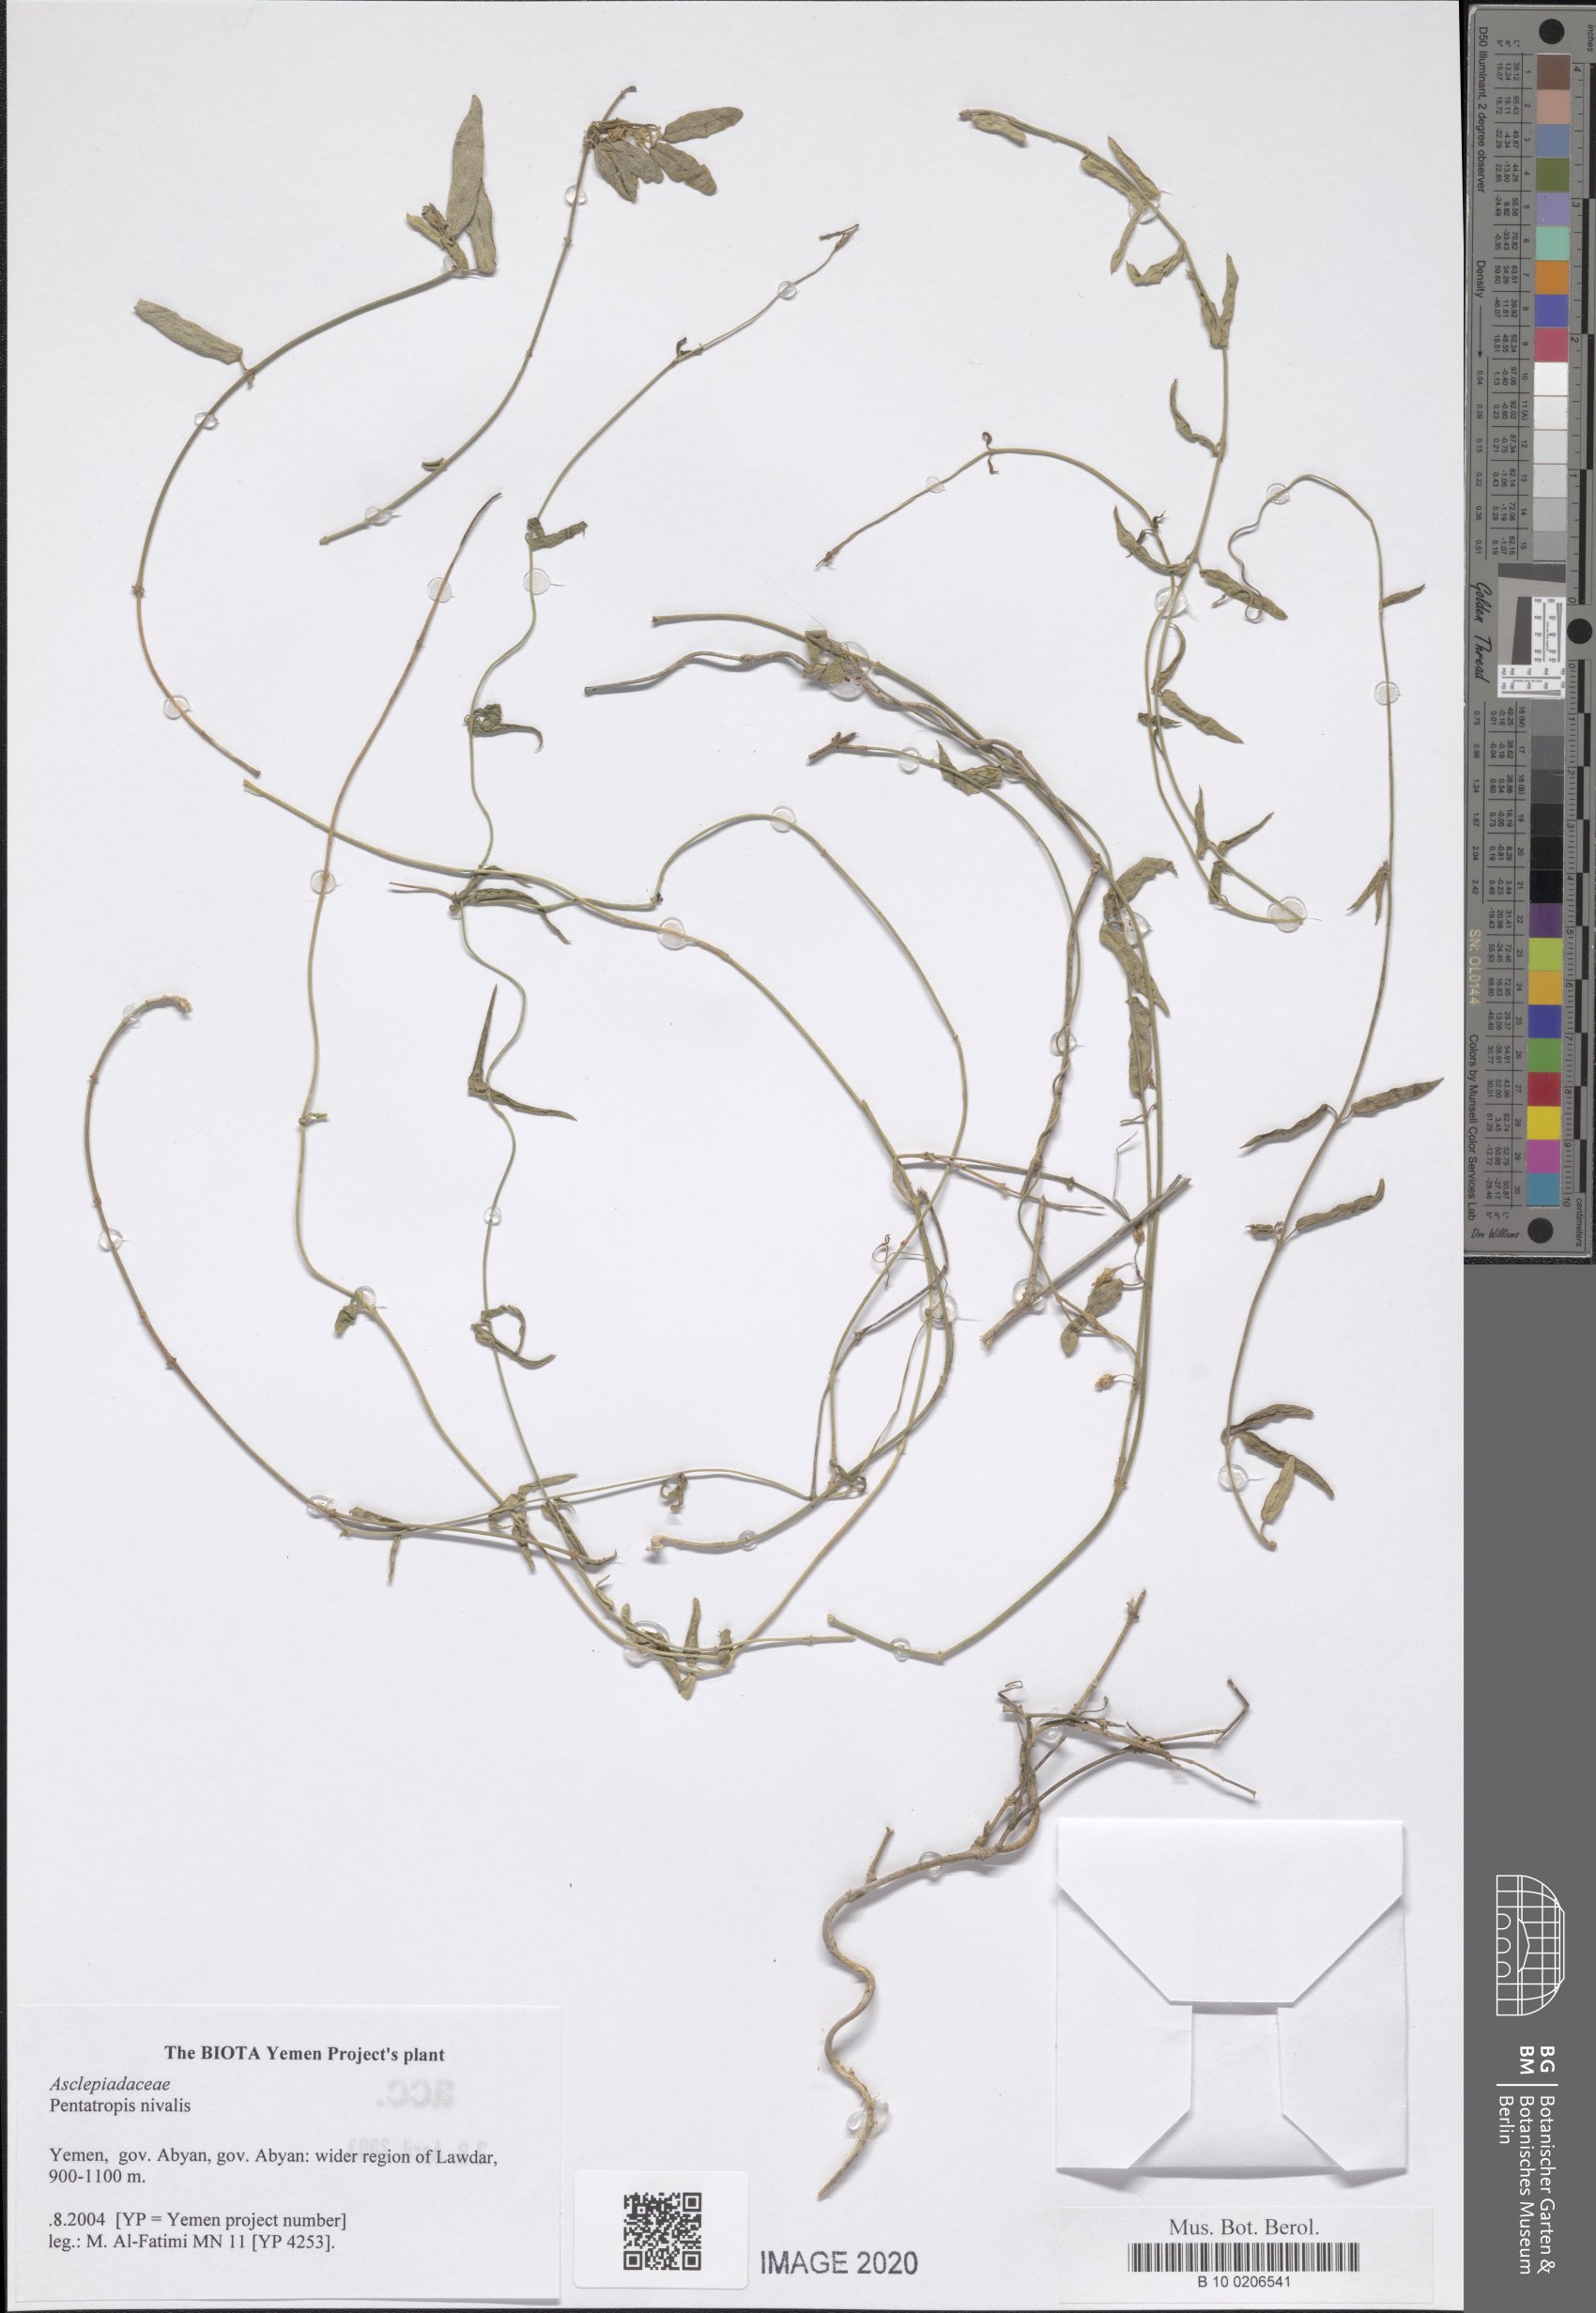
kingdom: Plantae
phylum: Tracheophyta
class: Magnoliopsida
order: Gentianales
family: Apocynaceae
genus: Pentatropis
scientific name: Pentatropis nivalis
